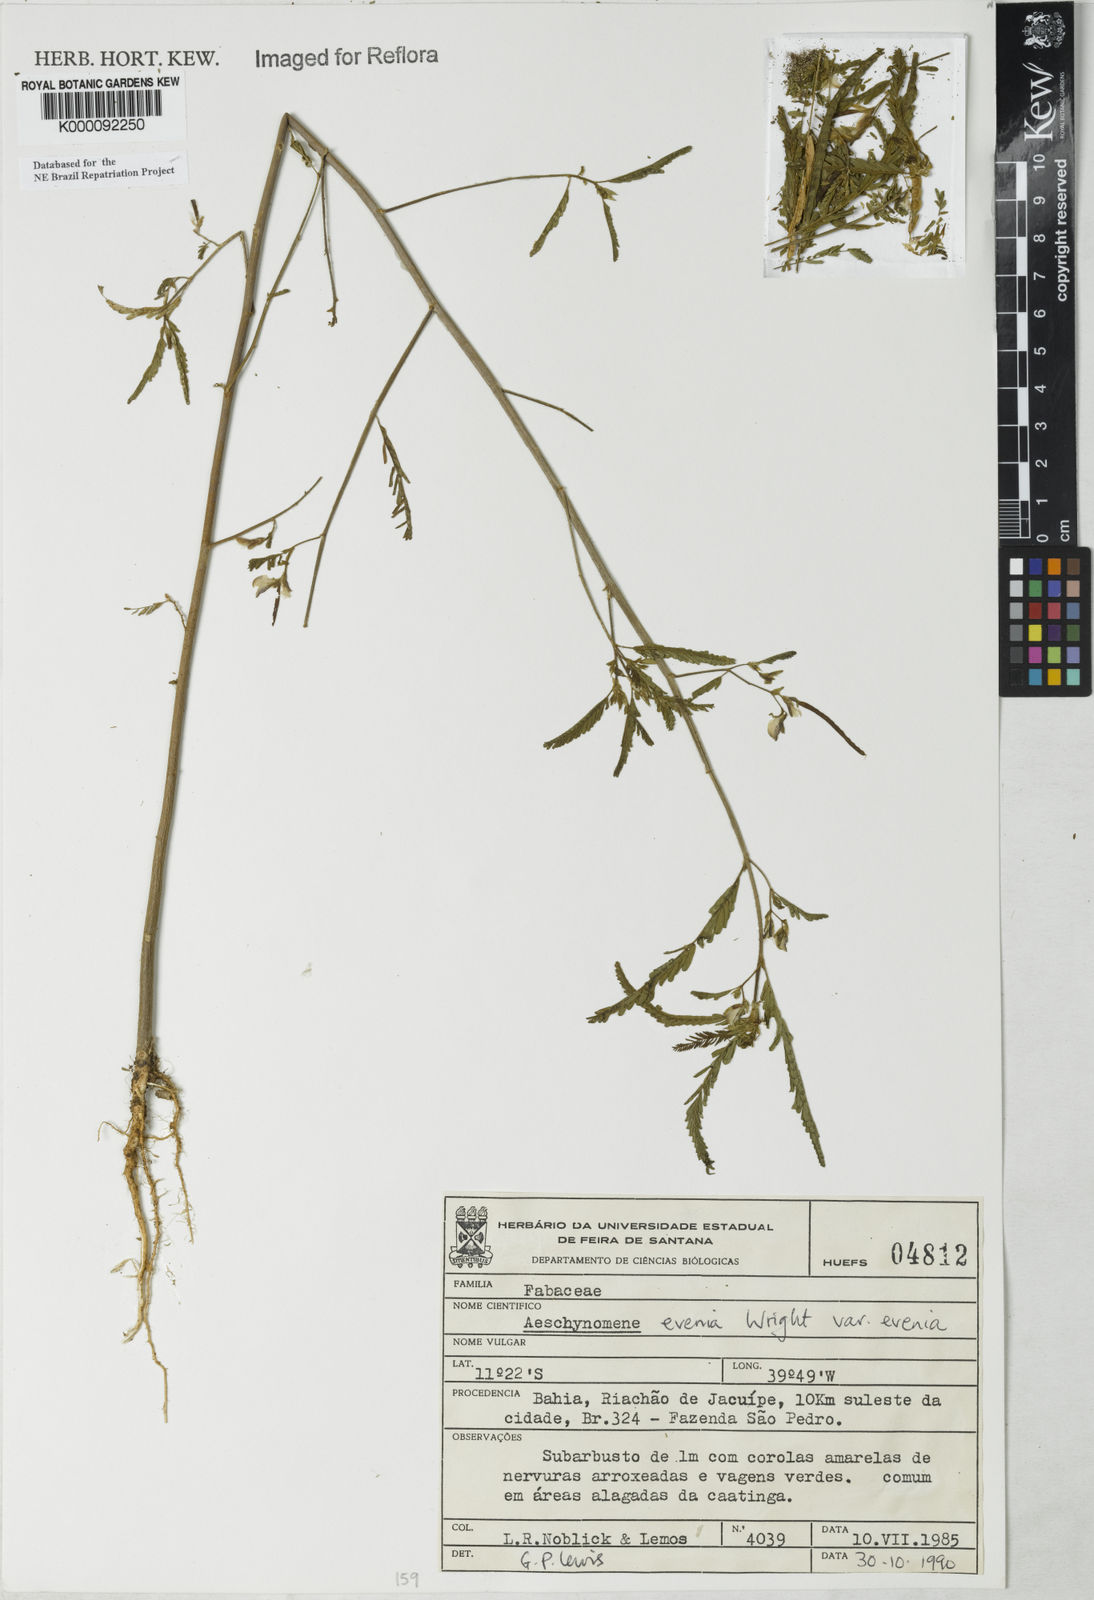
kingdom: Plantae
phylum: Tracheophyta
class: Magnoliopsida
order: Fabales
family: Fabaceae
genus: Aeschynomene
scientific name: Aeschynomene evenia
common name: Shrubby jointvetch
